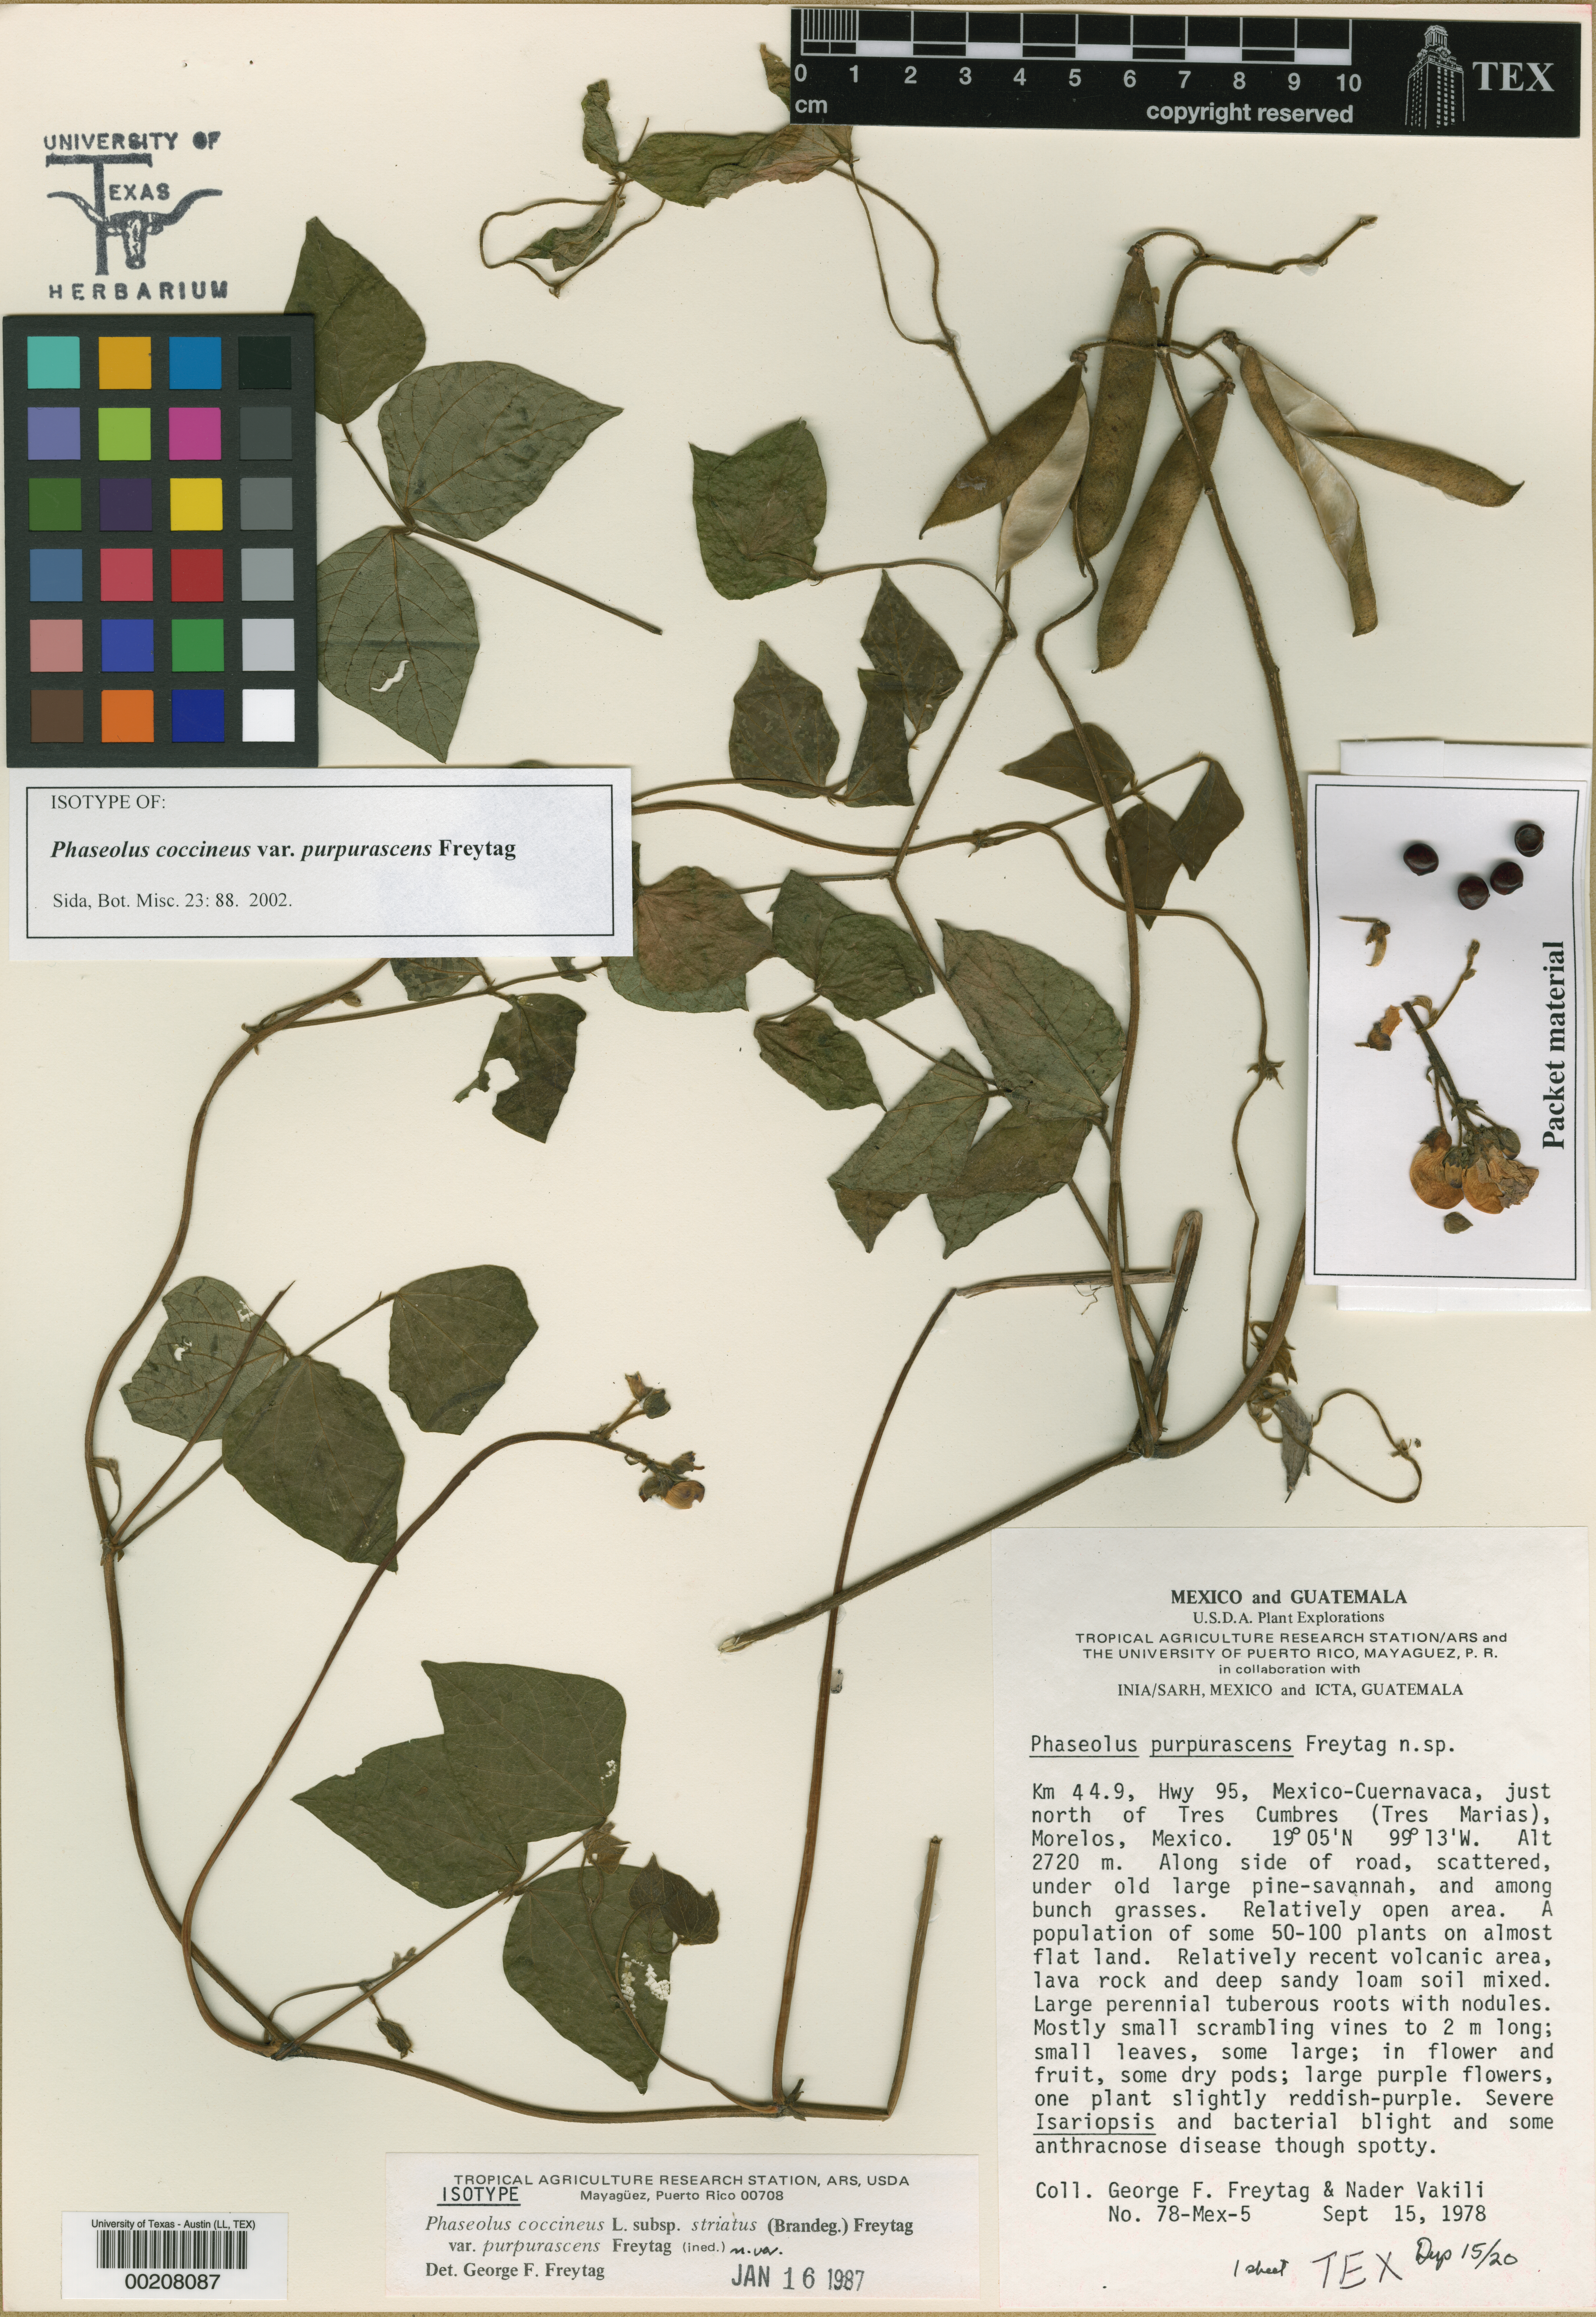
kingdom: Plantae
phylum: Tracheophyta
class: Magnoliopsida
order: Fabales
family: Fabaceae
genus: Phaseolus
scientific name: Phaseolus coccineus
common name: Runner bean
